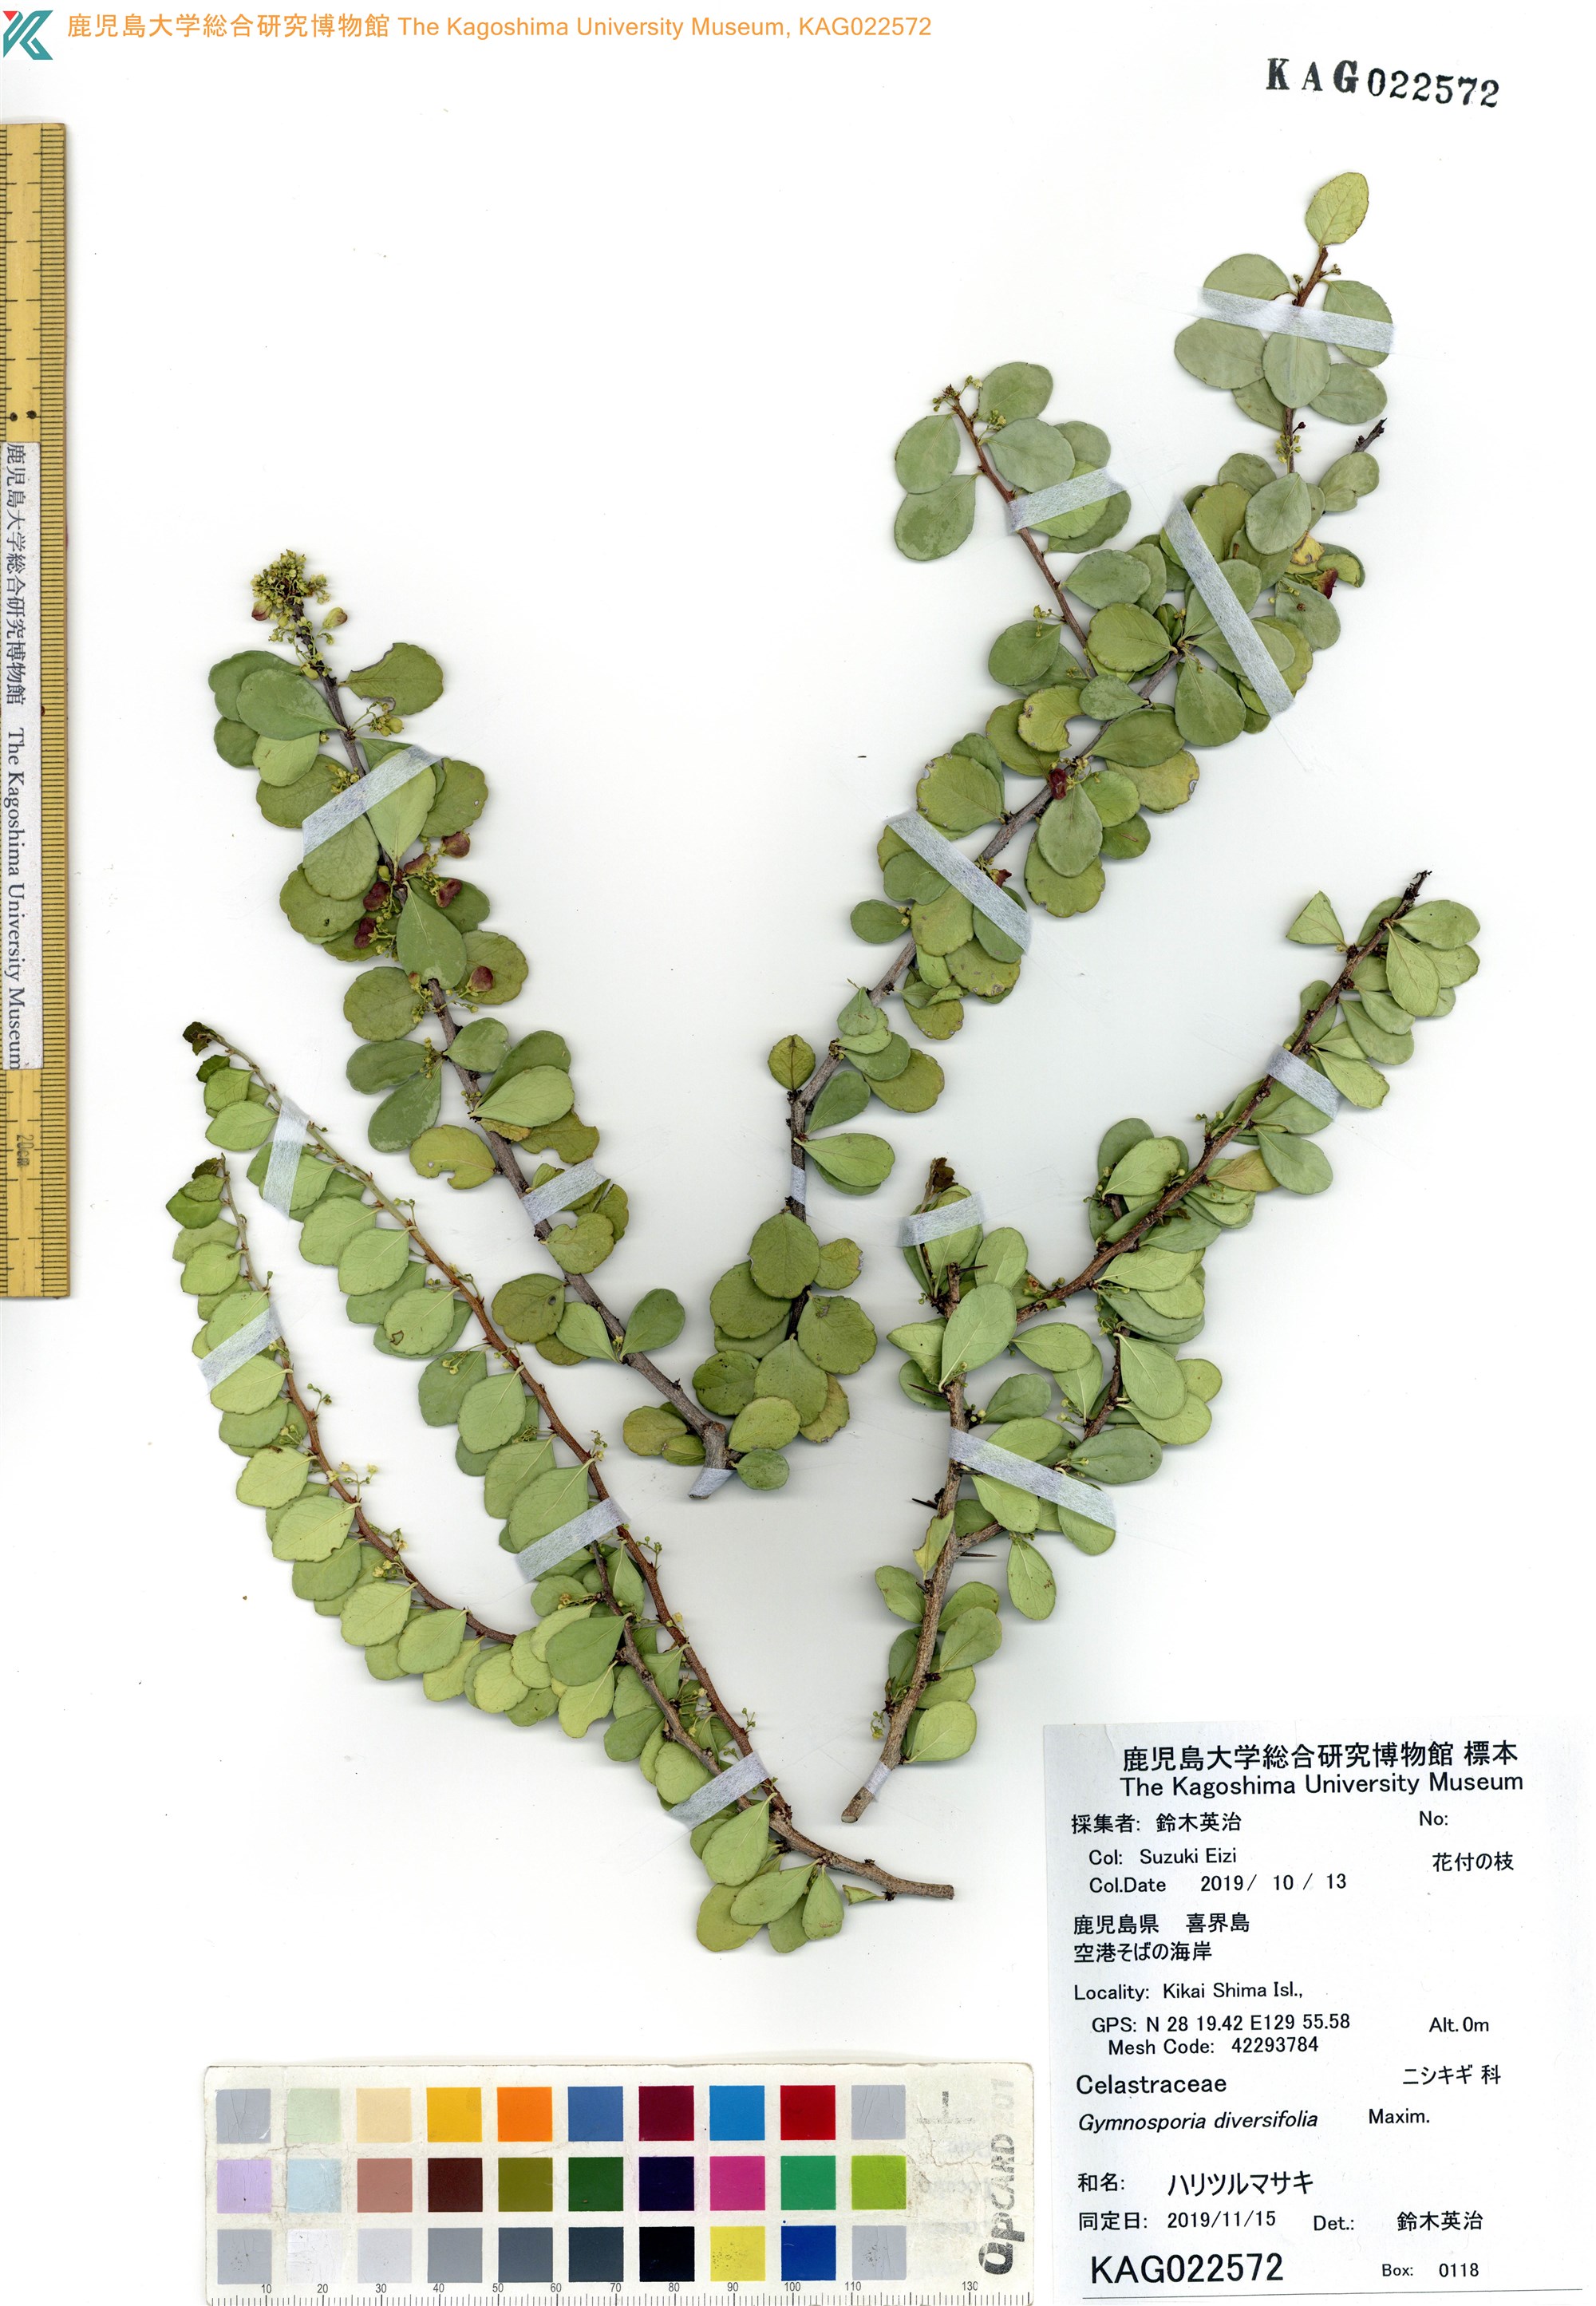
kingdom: Plantae
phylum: Tracheophyta
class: Magnoliopsida
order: Celastrales
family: Celastraceae
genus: Gymnosporia
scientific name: Gymnosporia diversifolia
